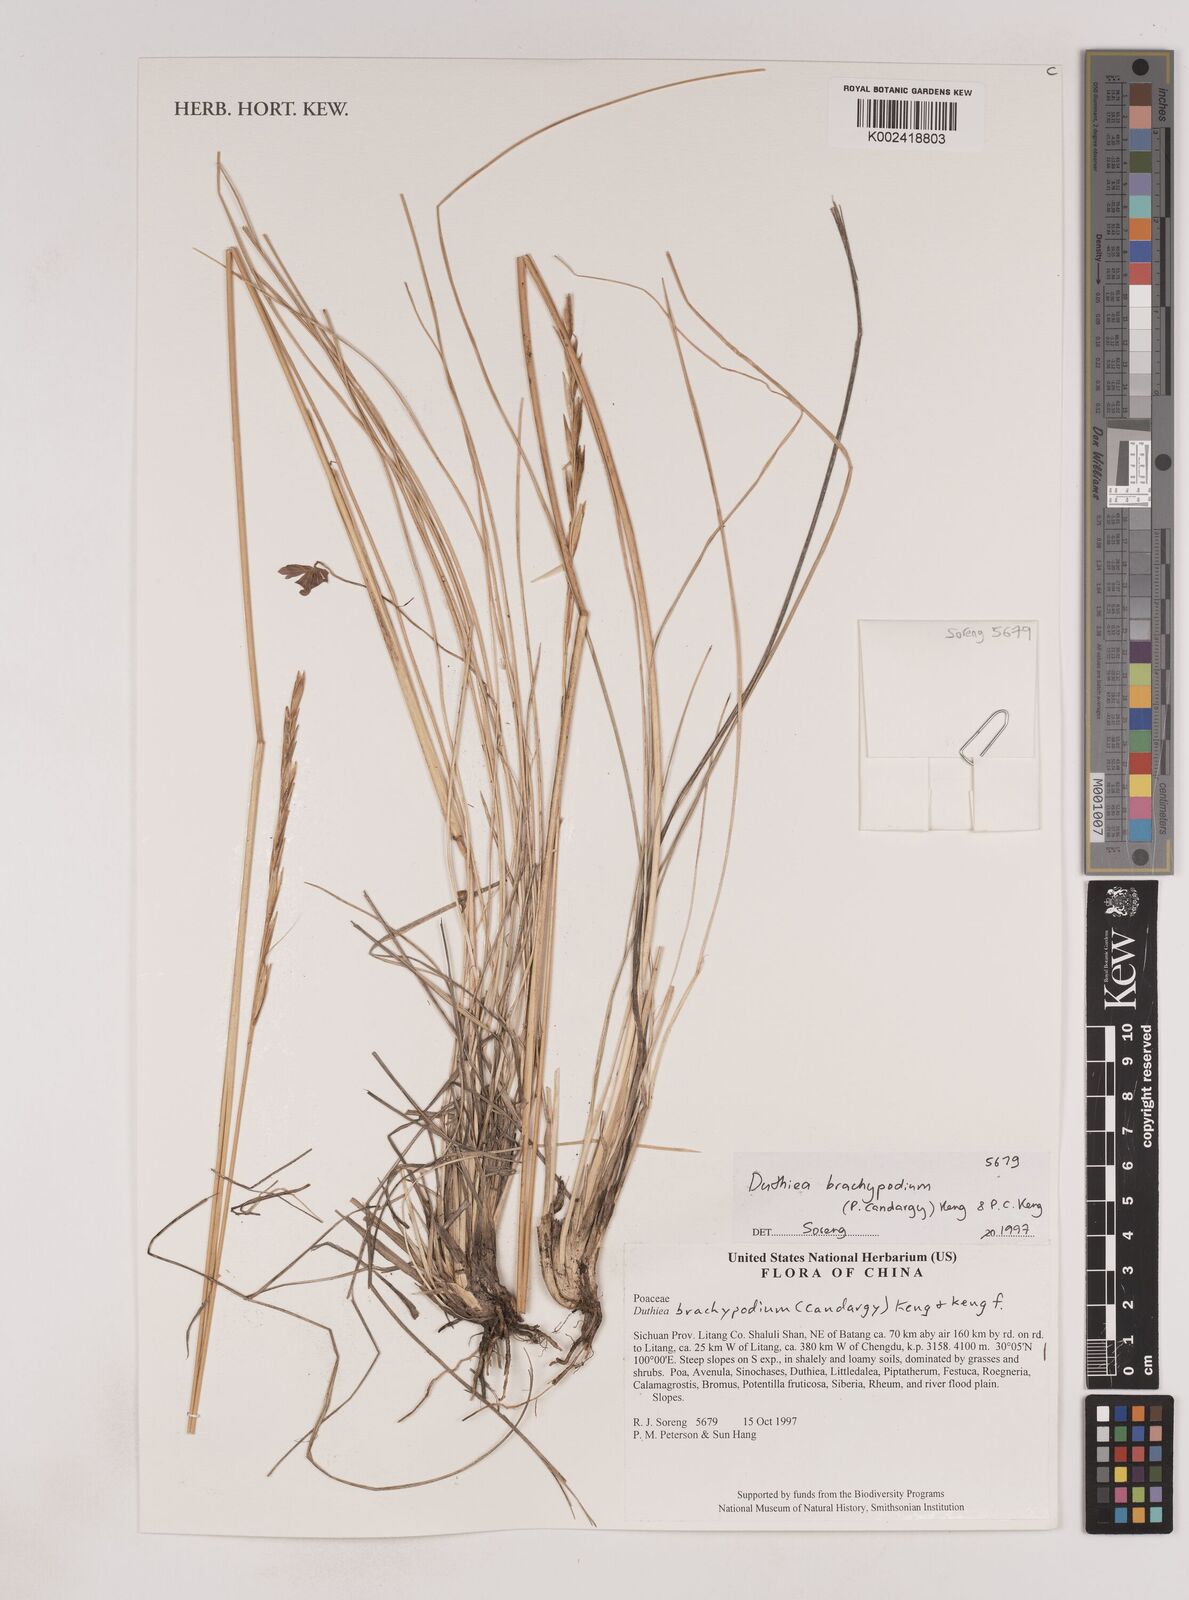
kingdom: Plantae
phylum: Tracheophyta
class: Liliopsida
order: Poales
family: Poaceae
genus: Duthiea
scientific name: Duthiea brachypodium
